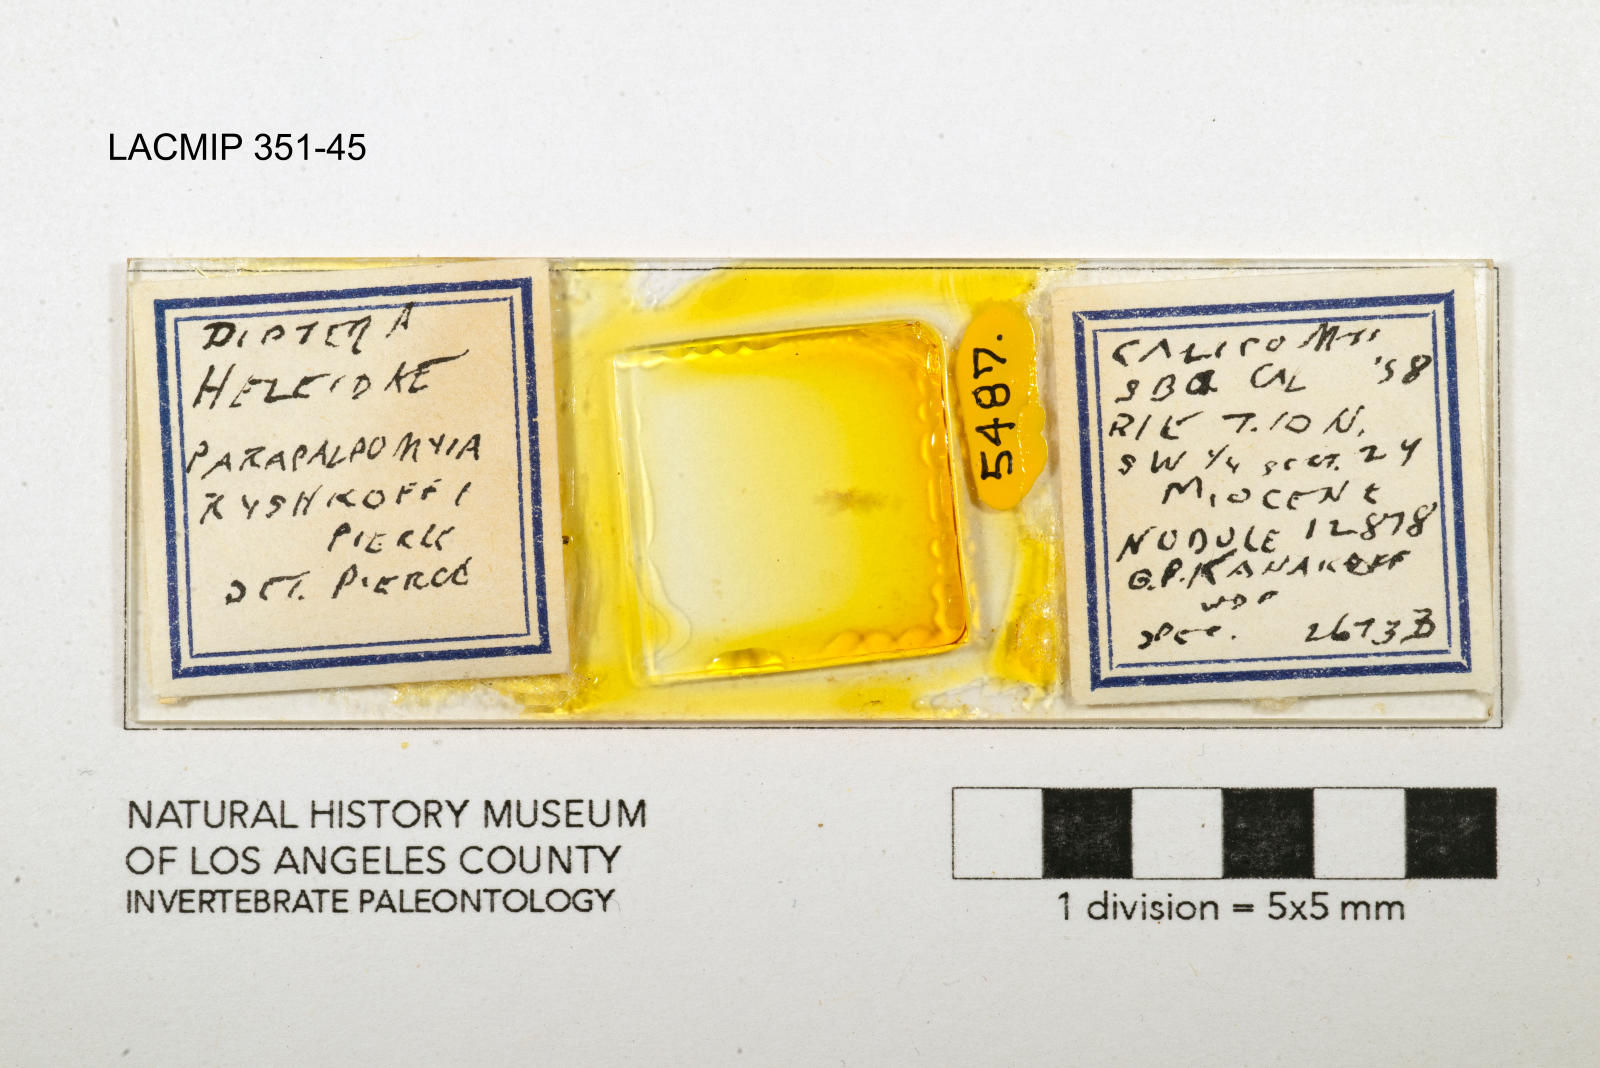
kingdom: Animalia
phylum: Arthropoda
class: Insecta
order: Diptera
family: Ceratopogonidae
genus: Palpomyia
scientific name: Palpomyia ryshkoffi
